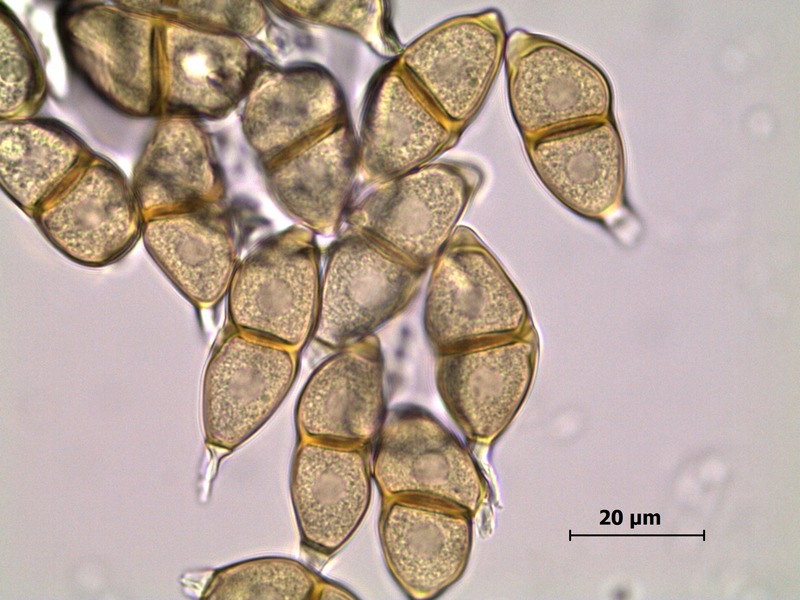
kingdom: Fungi
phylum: Basidiomycota
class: Pucciniomycetes
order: Pucciniales
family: Pucciniaceae
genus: Puccinia
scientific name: Puccinia chrysosplenii
